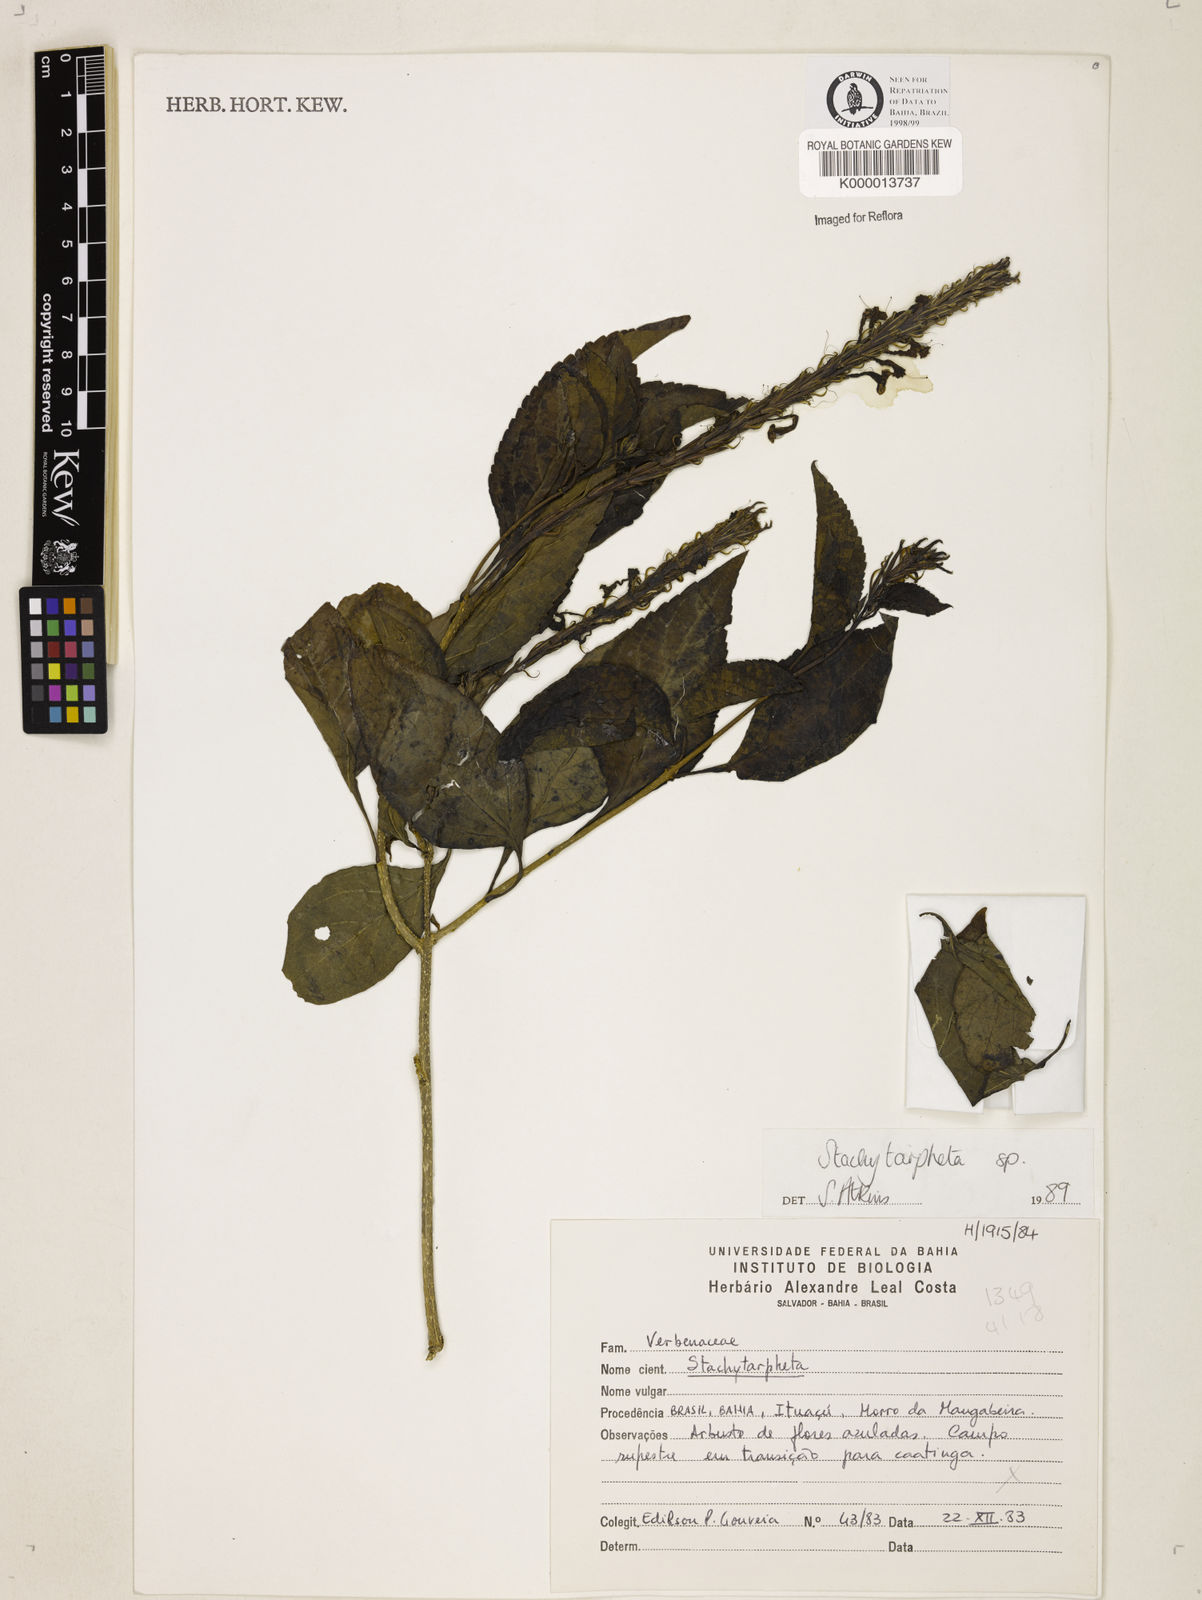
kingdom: Plantae
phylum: Tracheophyta
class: Magnoliopsida
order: Lamiales
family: Verbenaceae
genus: Stachytarpheta
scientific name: Stachytarpheta trispicata
